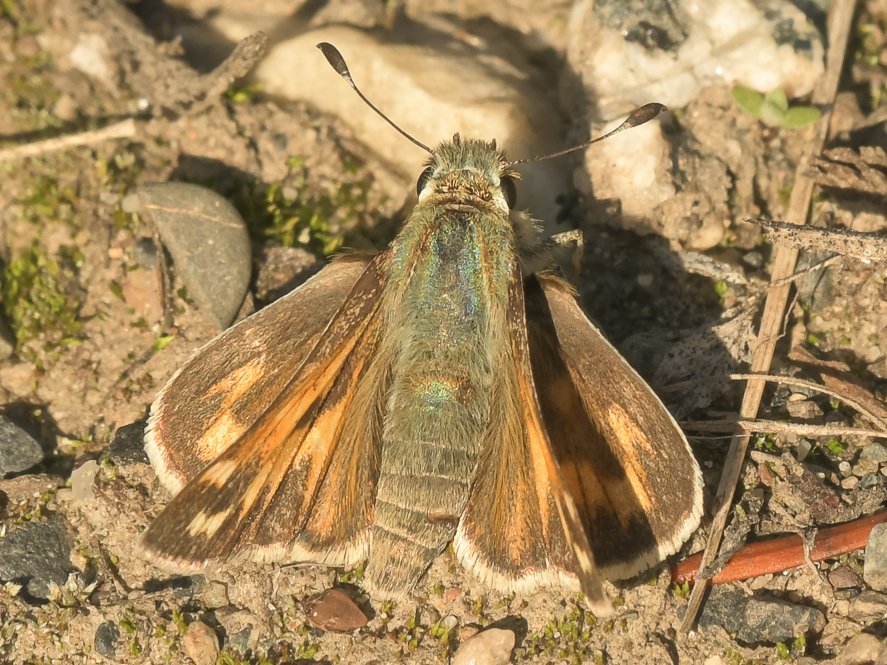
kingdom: Animalia
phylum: Arthropoda
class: Insecta
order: Lepidoptera
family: Hesperiidae
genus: Ochlodes
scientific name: Ochlodes sylvanoides
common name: Woodland Skipper
